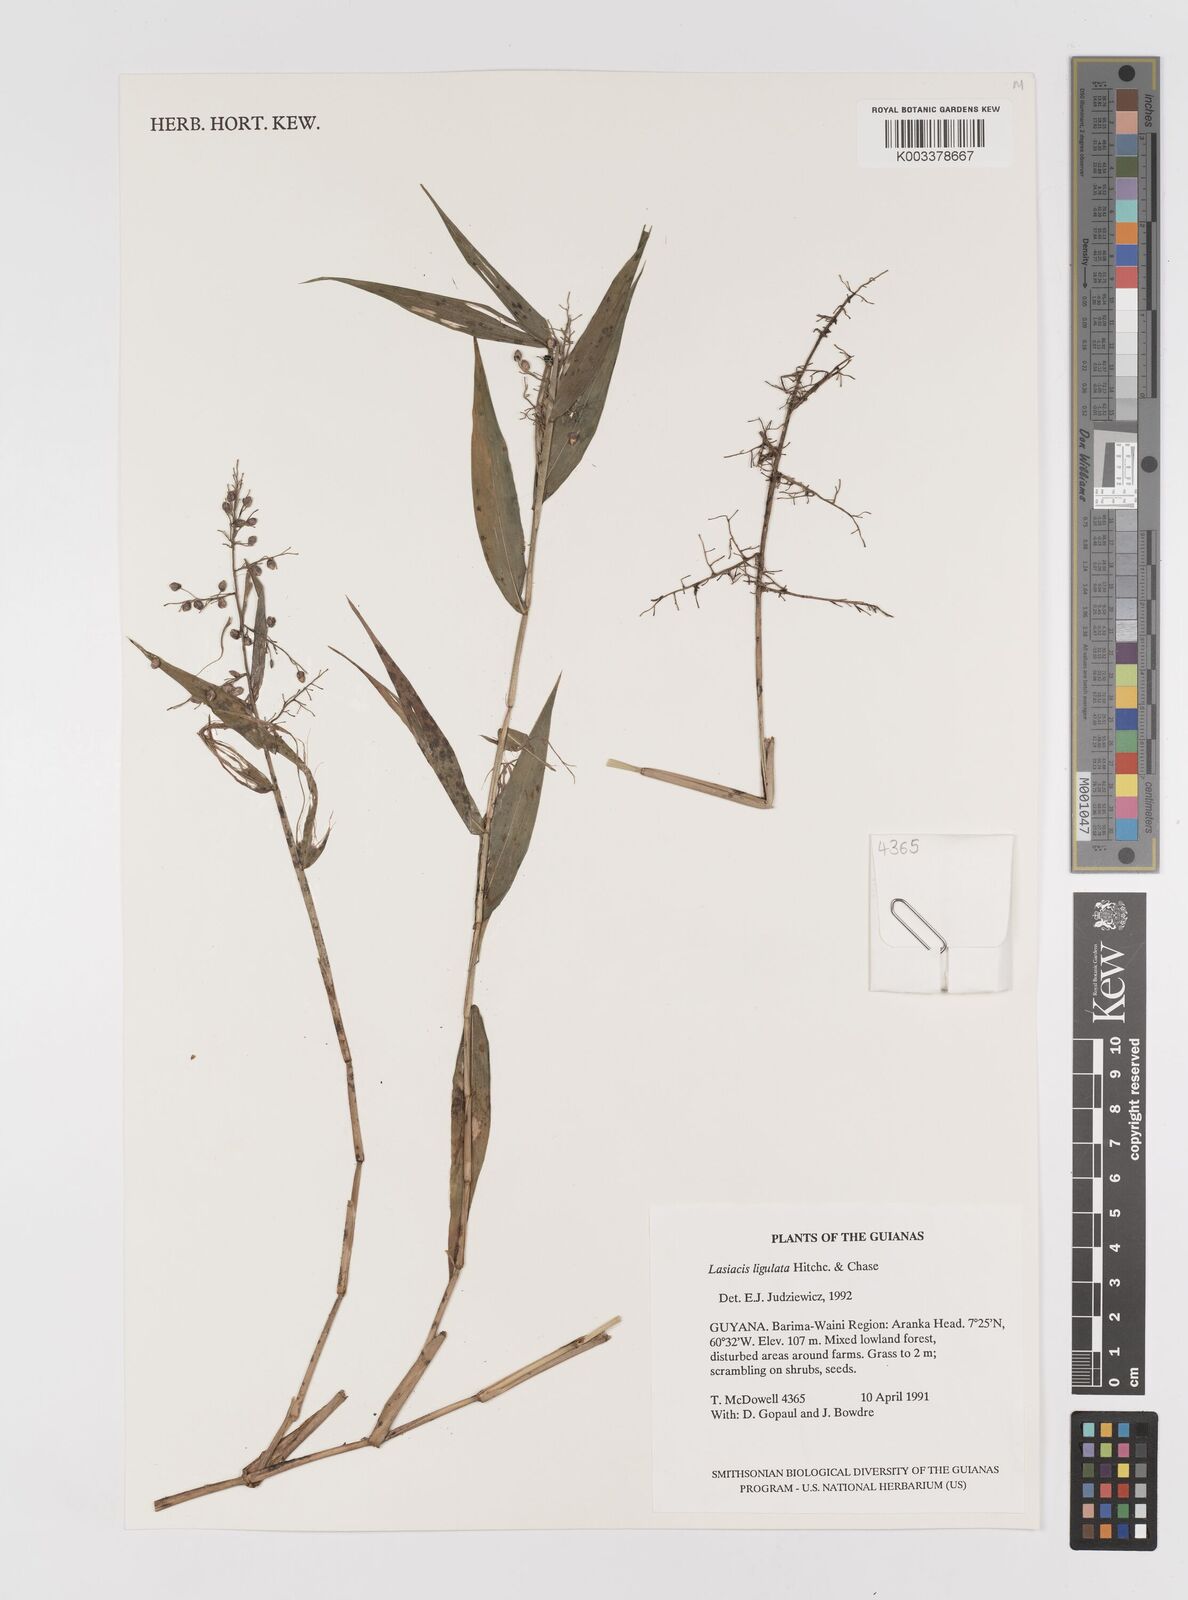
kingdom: Plantae
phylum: Tracheophyta
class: Liliopsida
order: Poales
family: Poaceae
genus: Lasiacis
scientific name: Lasiacis ligulata
